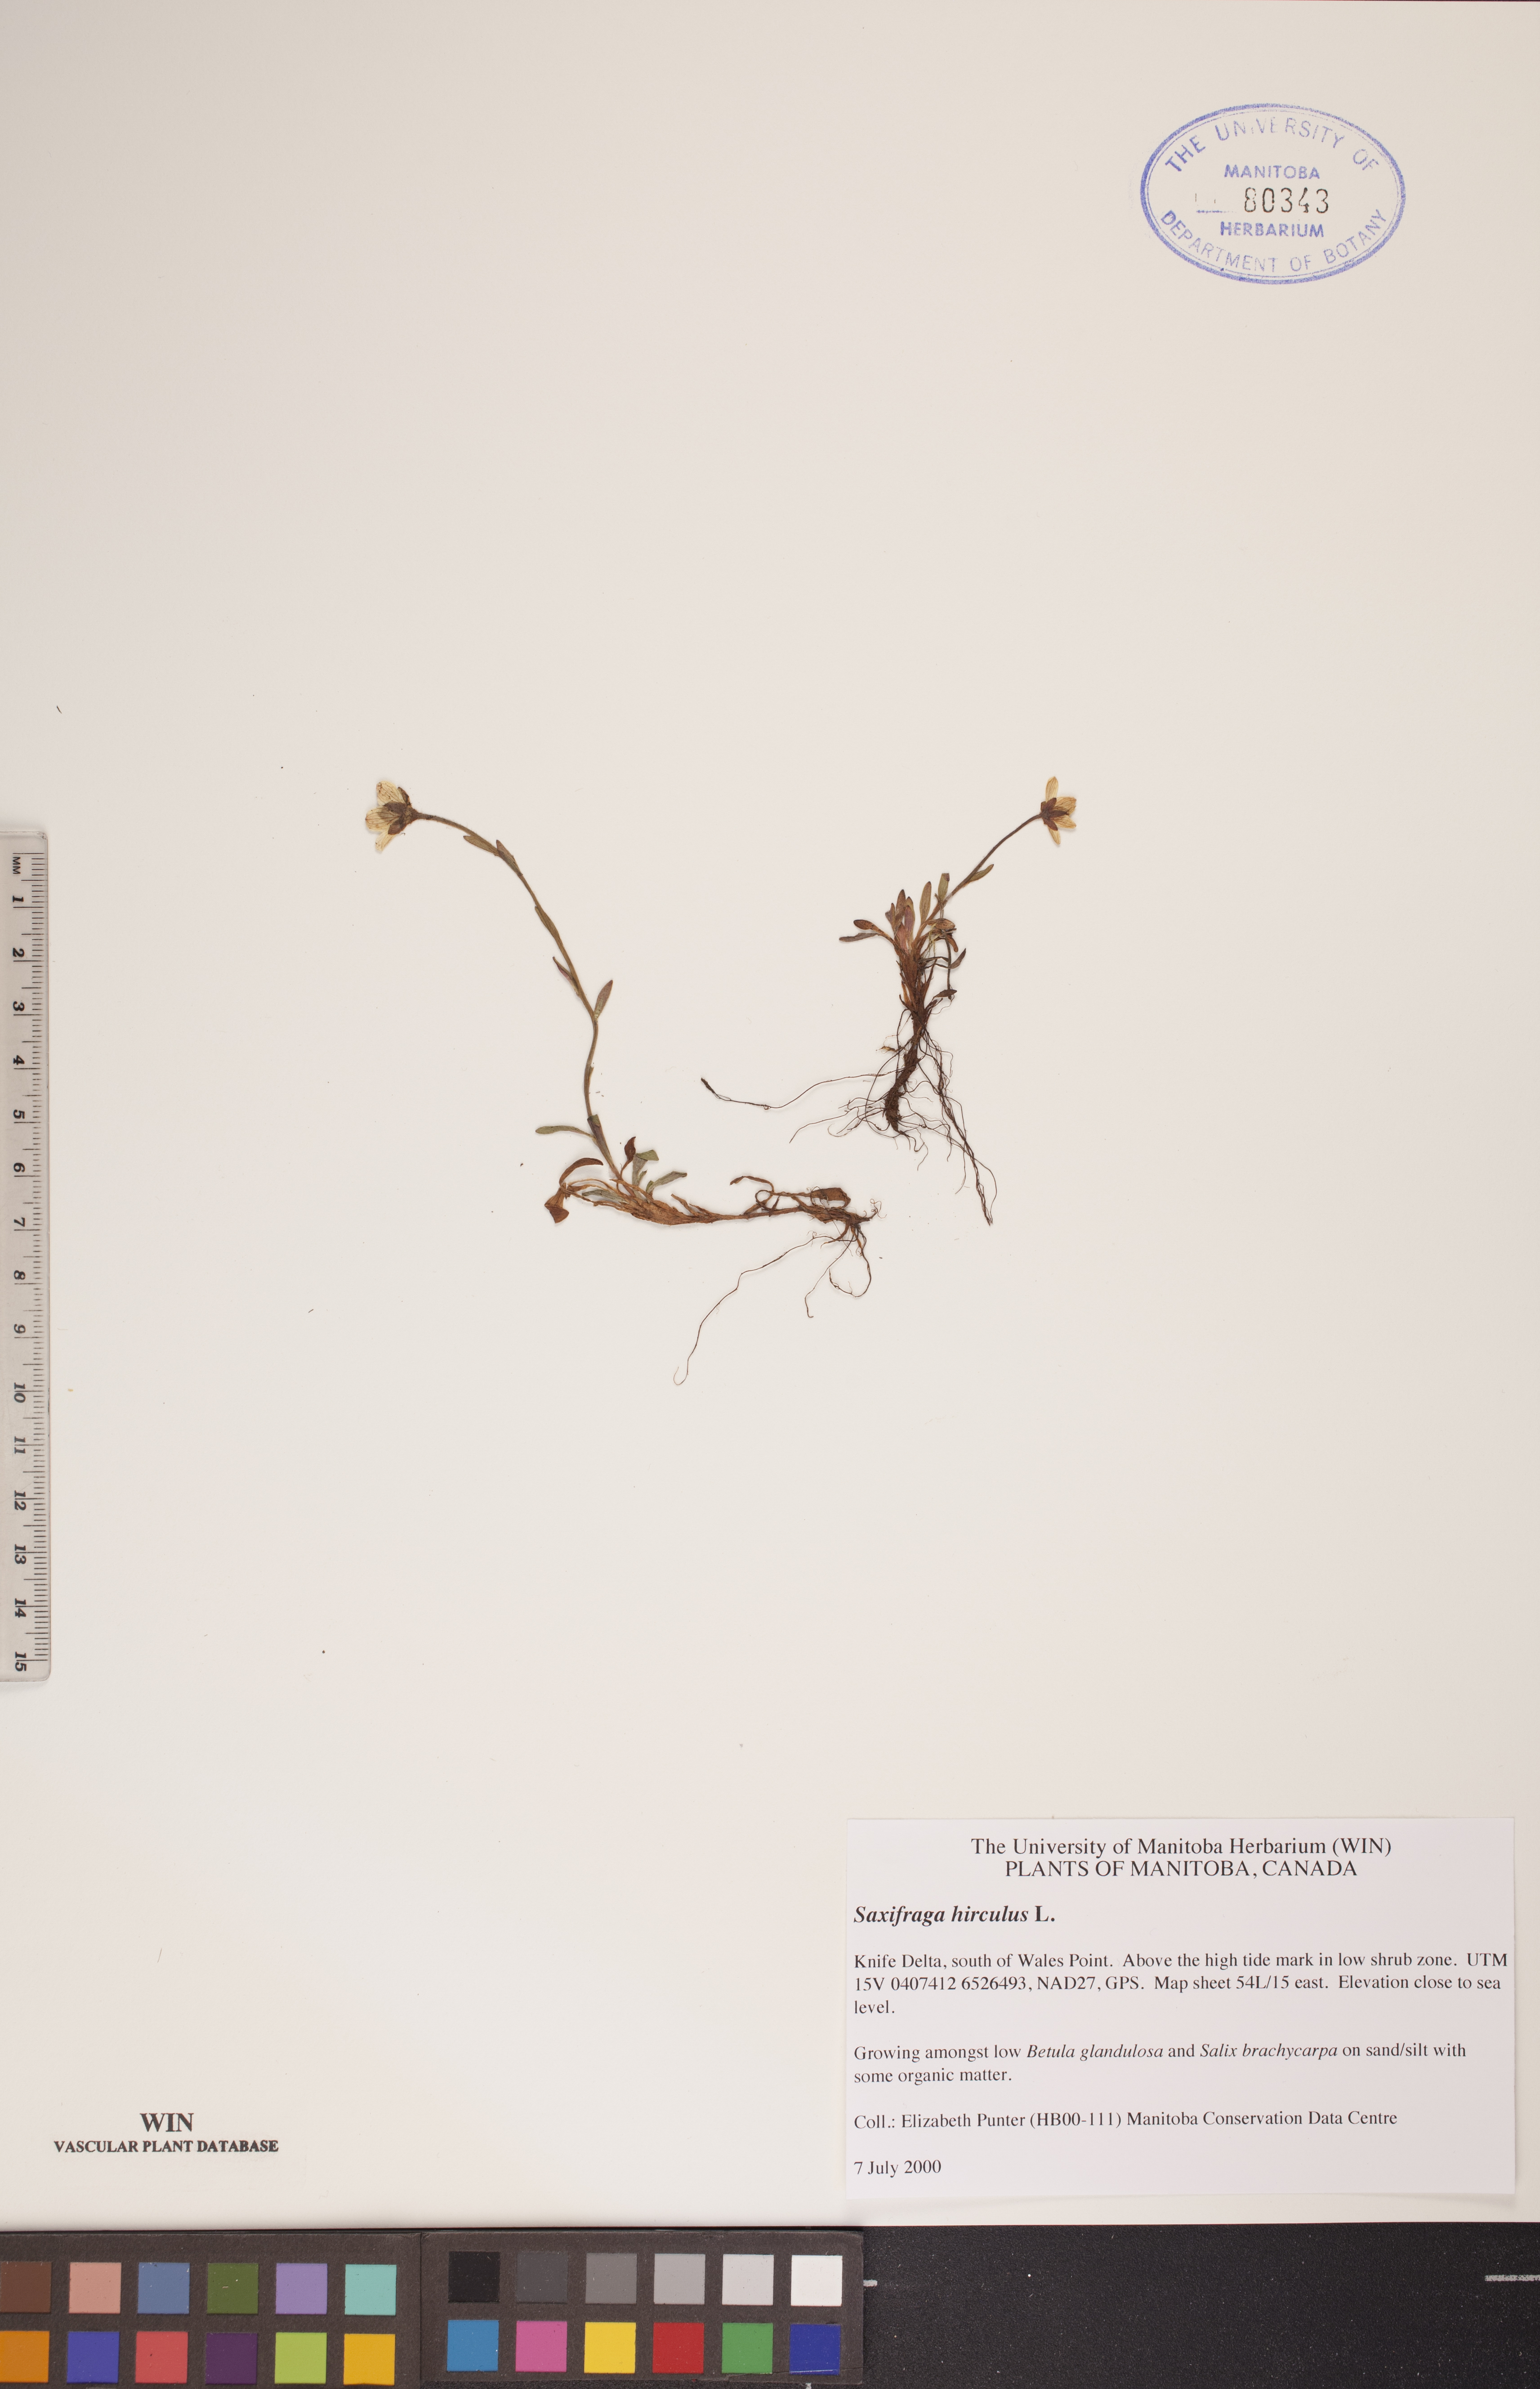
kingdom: Plantae
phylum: Tracheophyta
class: Magnoliopsida
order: Saxifragales
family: Saxifragaceae
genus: Saxifraga
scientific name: Saxifraga hirculus
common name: Yellow marsh saxifrage
